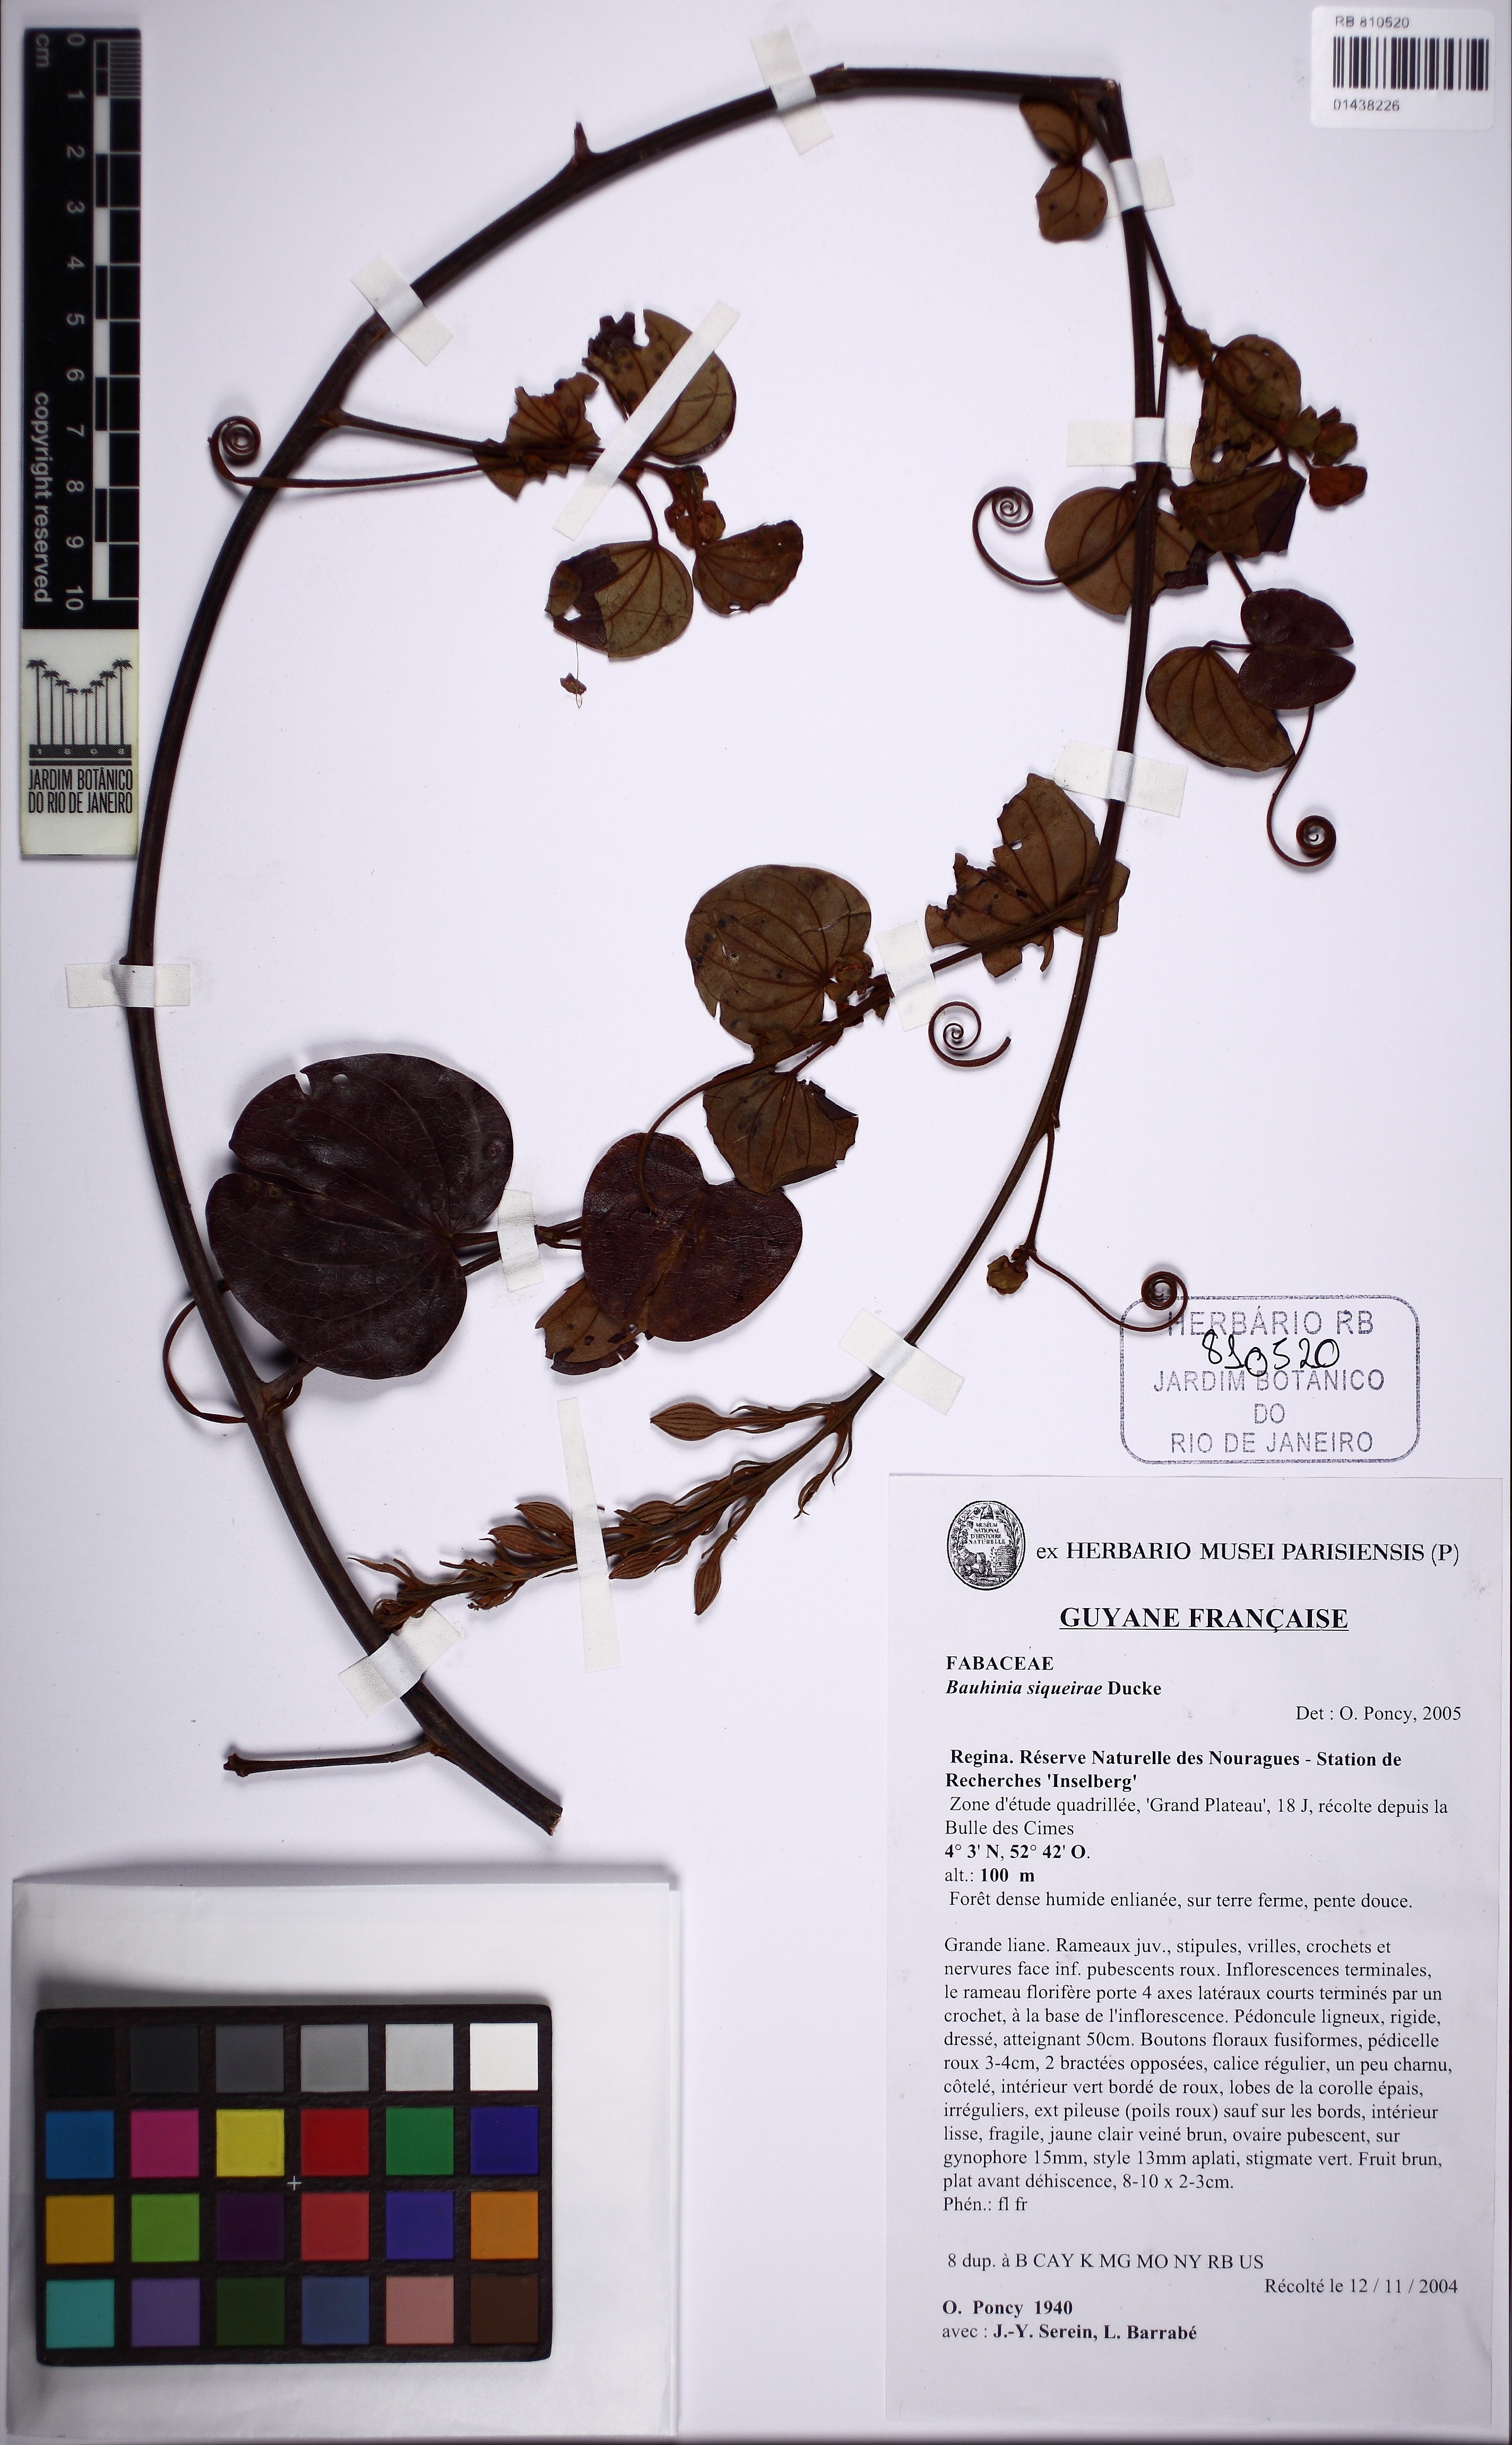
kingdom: Plantae
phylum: Tracheophyta
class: Magnoliopsida
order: Fabales
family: Fabaceae
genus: Schnella
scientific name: Schnella siqueiraei
